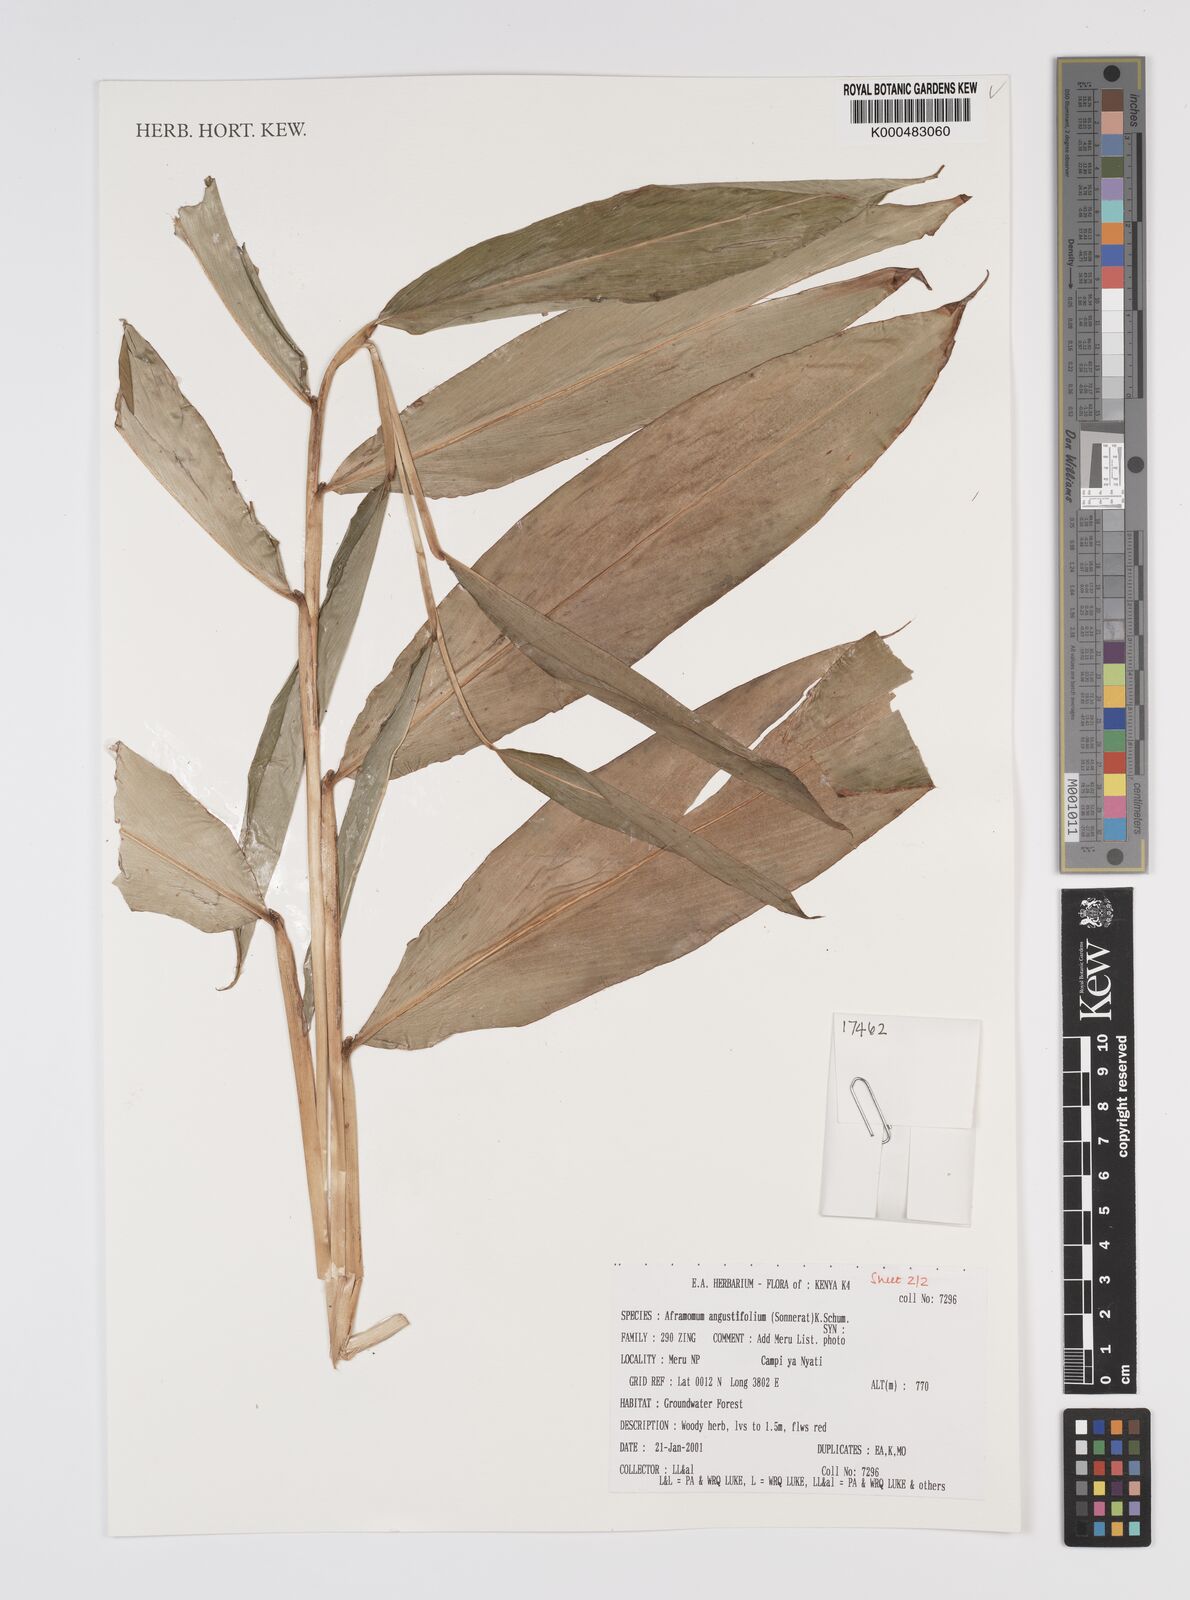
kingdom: Plantae
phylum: Tracheophyta
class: Liliopsida
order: Zingiberales
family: Zingiberaceae
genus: Aframomum
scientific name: Aframomum angustifolium
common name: Guinea grains
